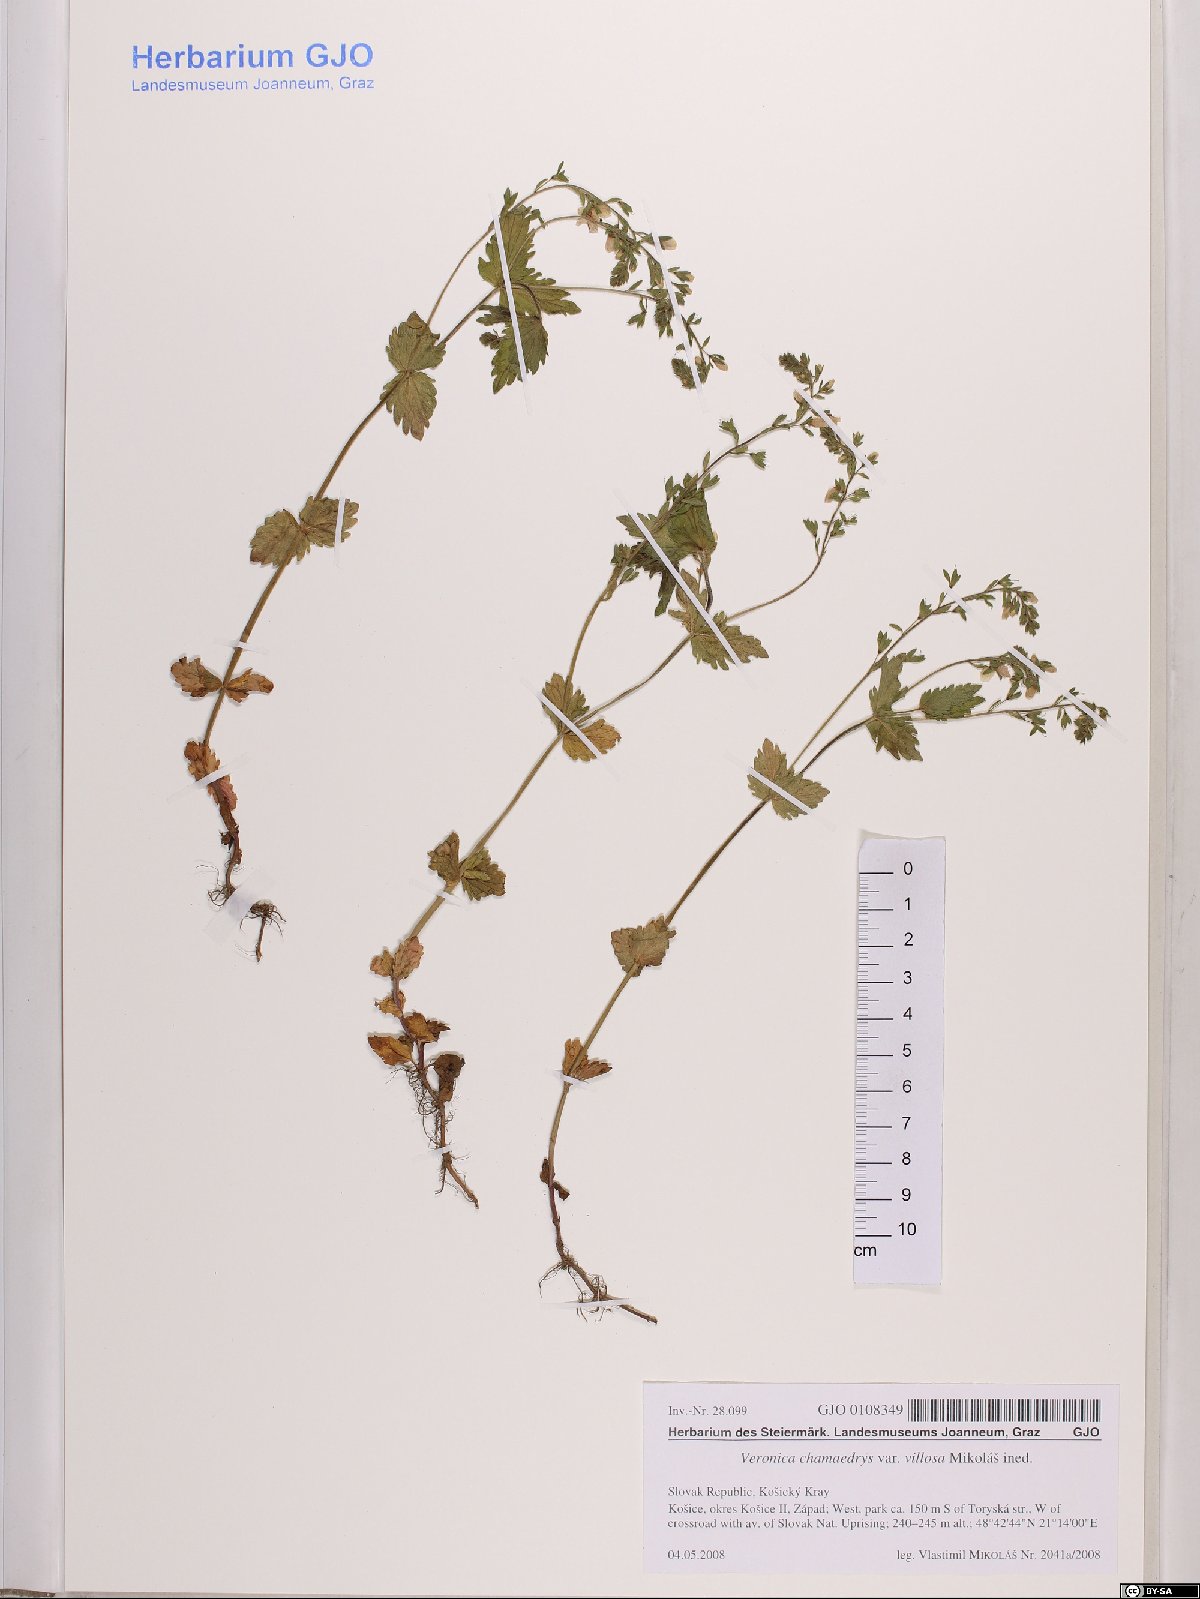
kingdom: Plantae
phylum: Tracheophyta
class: Magnoliopsida
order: Lamiales
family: Plantaginaceae
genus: Veronica
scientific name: Veronica chamaedrys
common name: Germander speedwell
